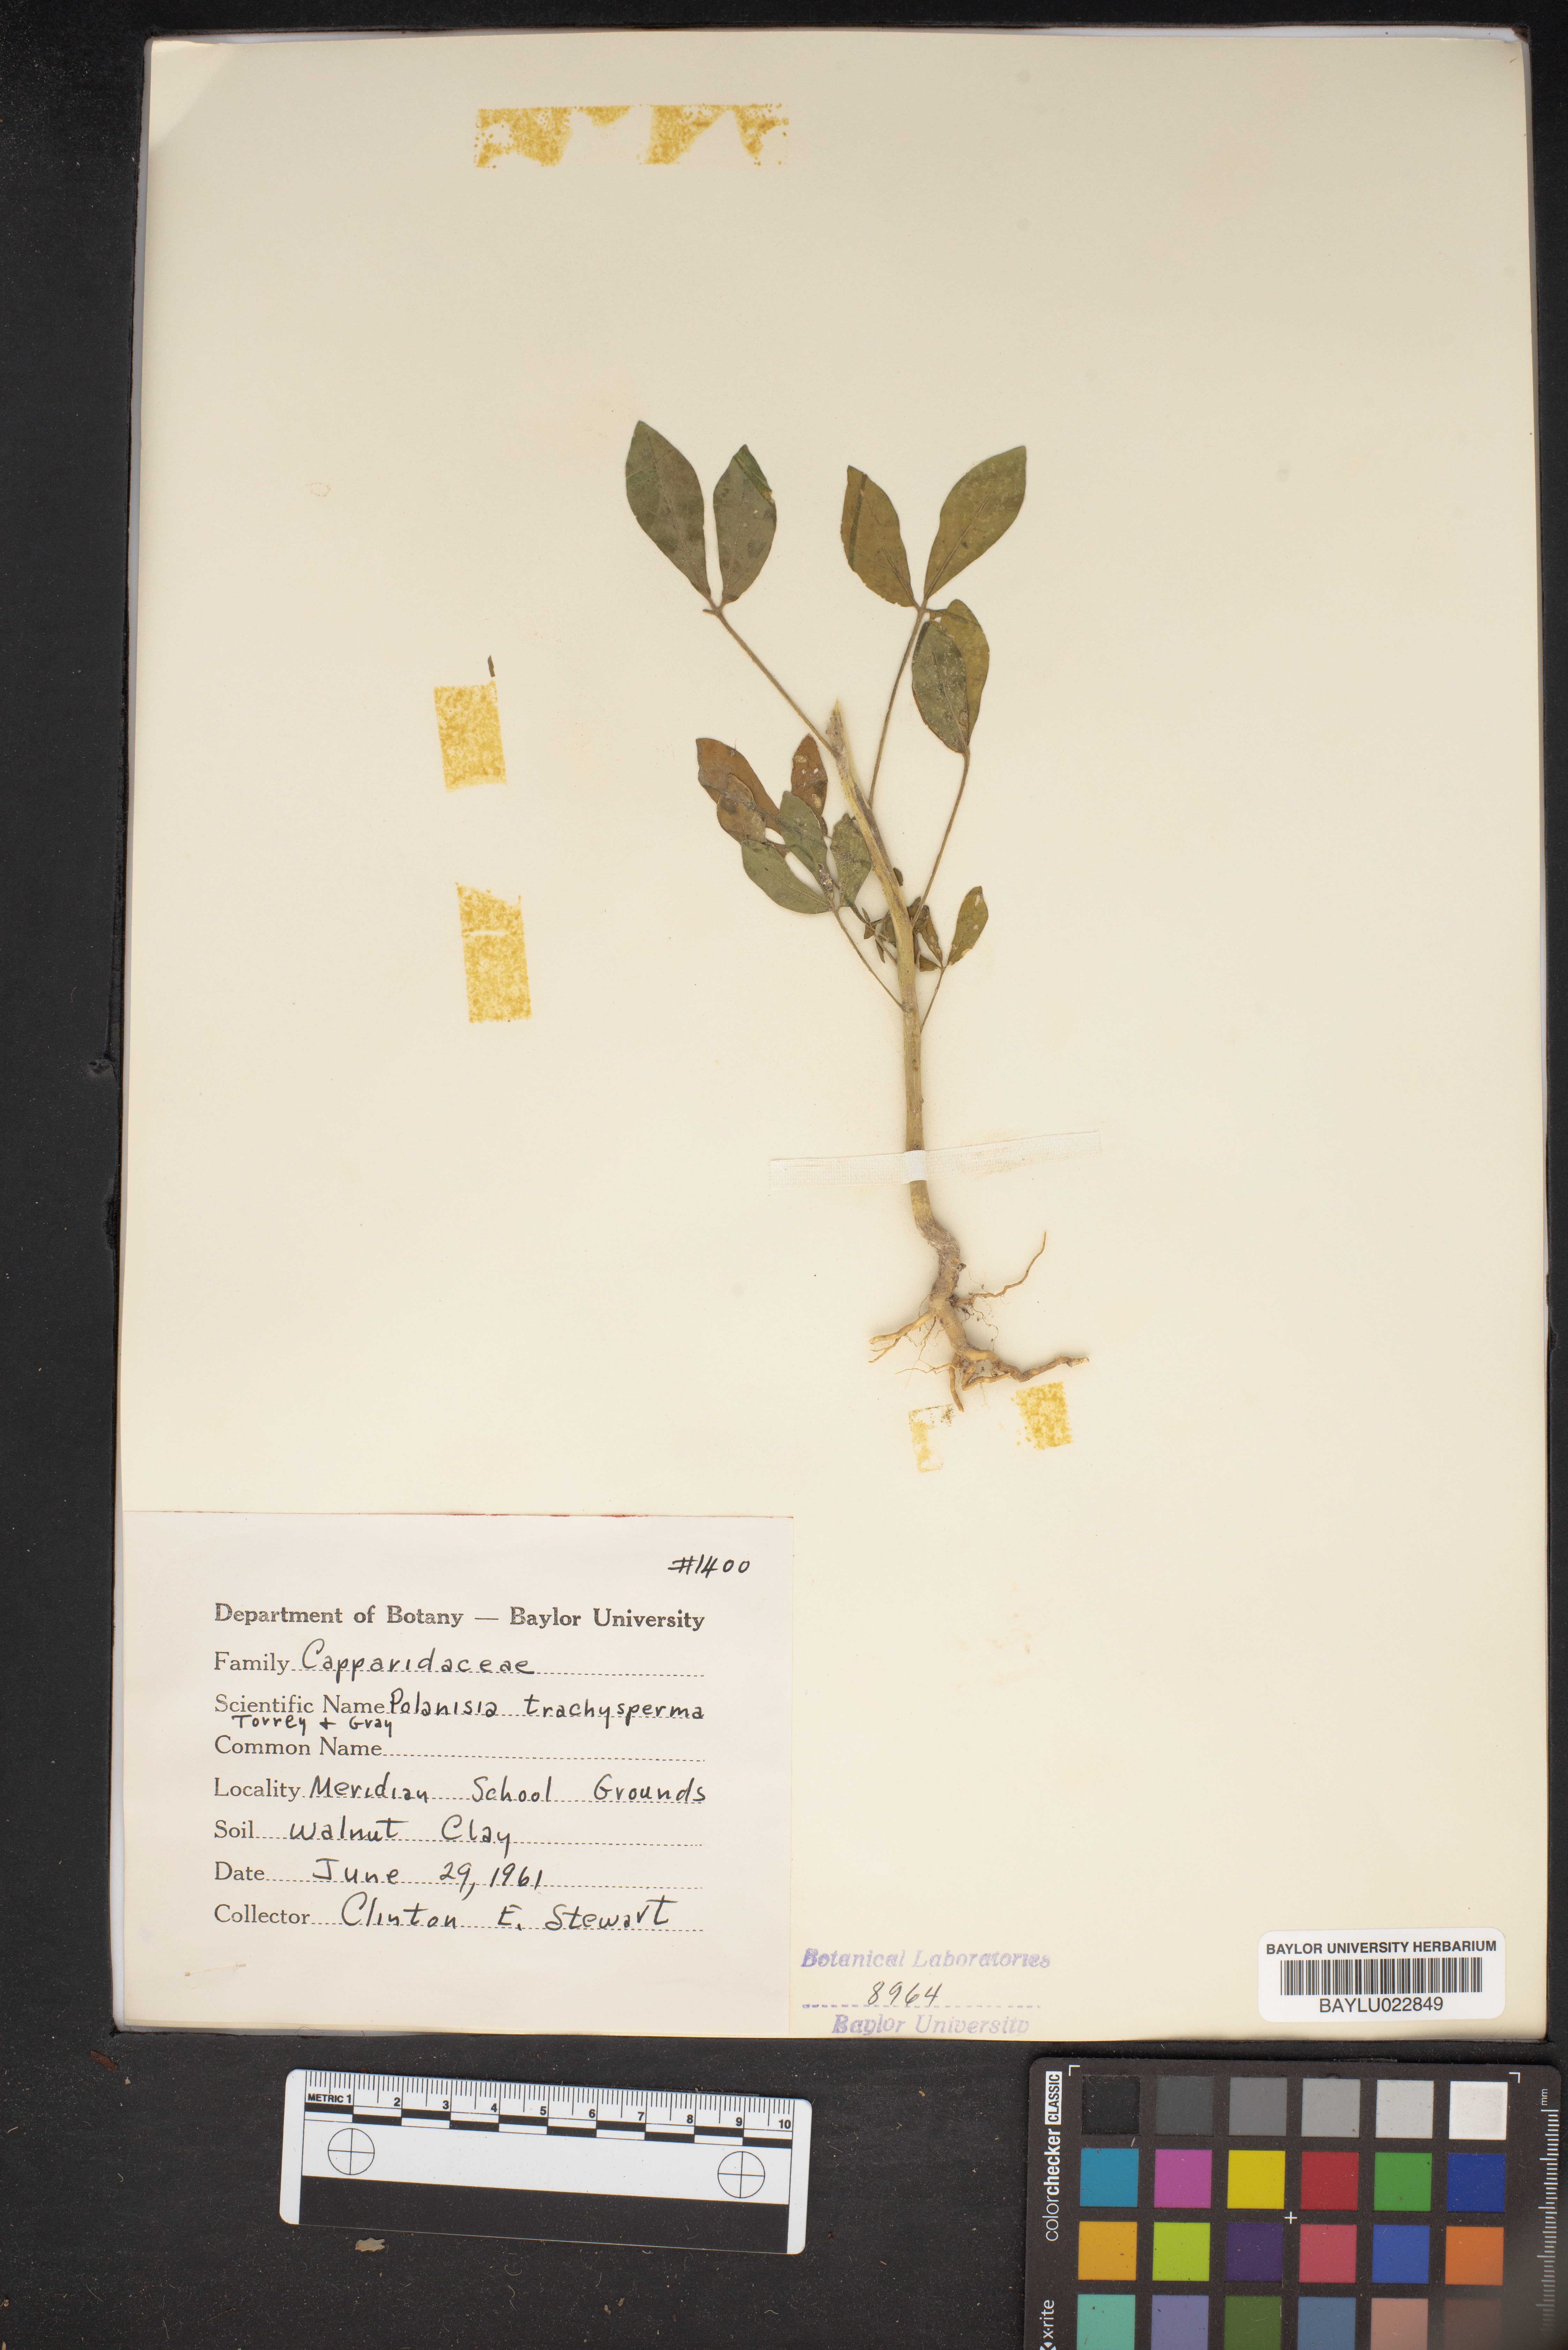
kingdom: Plantae
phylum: Tracheophyta
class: Magnoliopsida
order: Brassicales
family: Cleomaceae
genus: Polanisia
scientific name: Polanisia trachysperma
